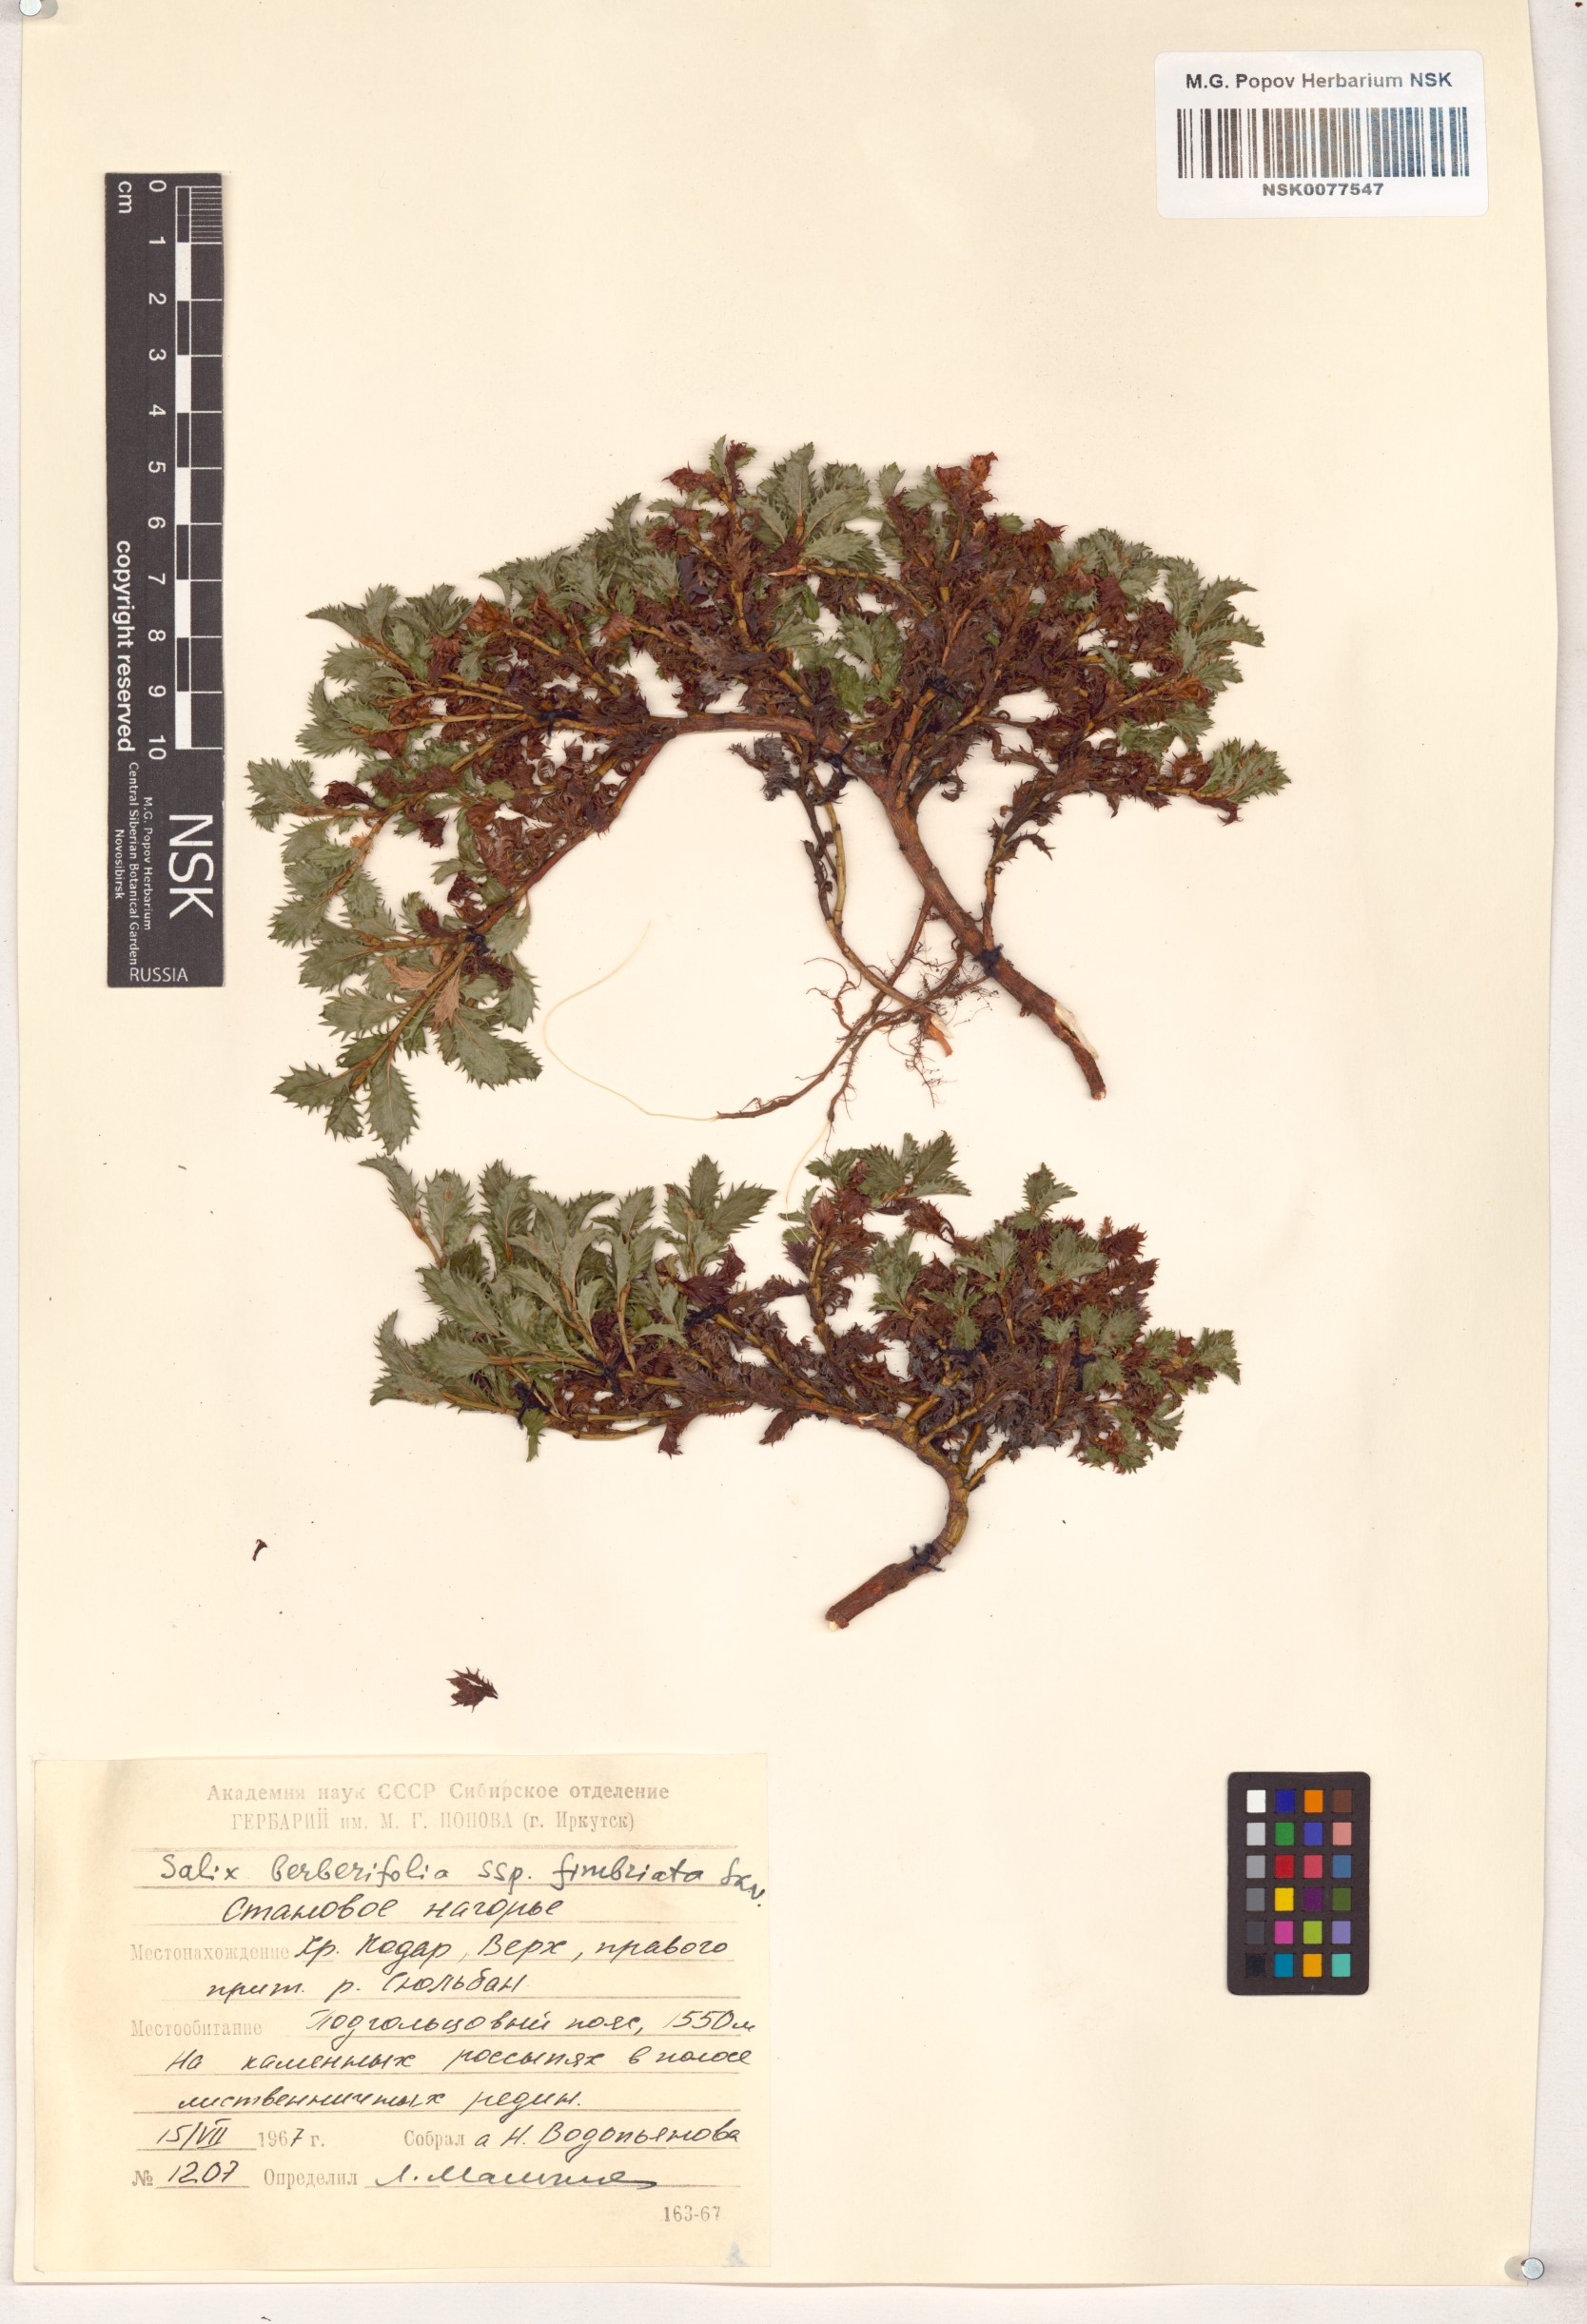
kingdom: Plantae
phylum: Tracheophyta
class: Magnoliopsida
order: Malpighiales
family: Salicaceae
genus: Salix
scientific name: Salix berberifolia
